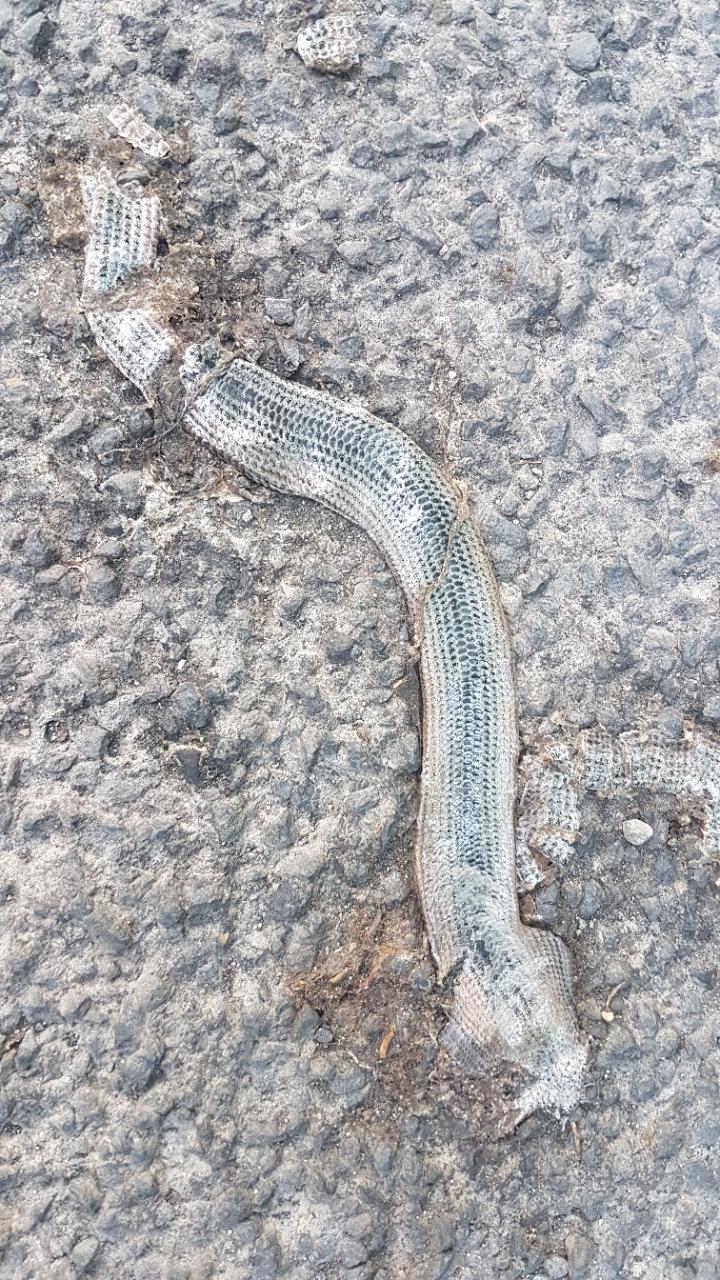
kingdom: Animalia
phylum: Chordata
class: Squamata
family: Anguidae
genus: Anguis
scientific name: Anguis fragilis
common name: Slow worm
